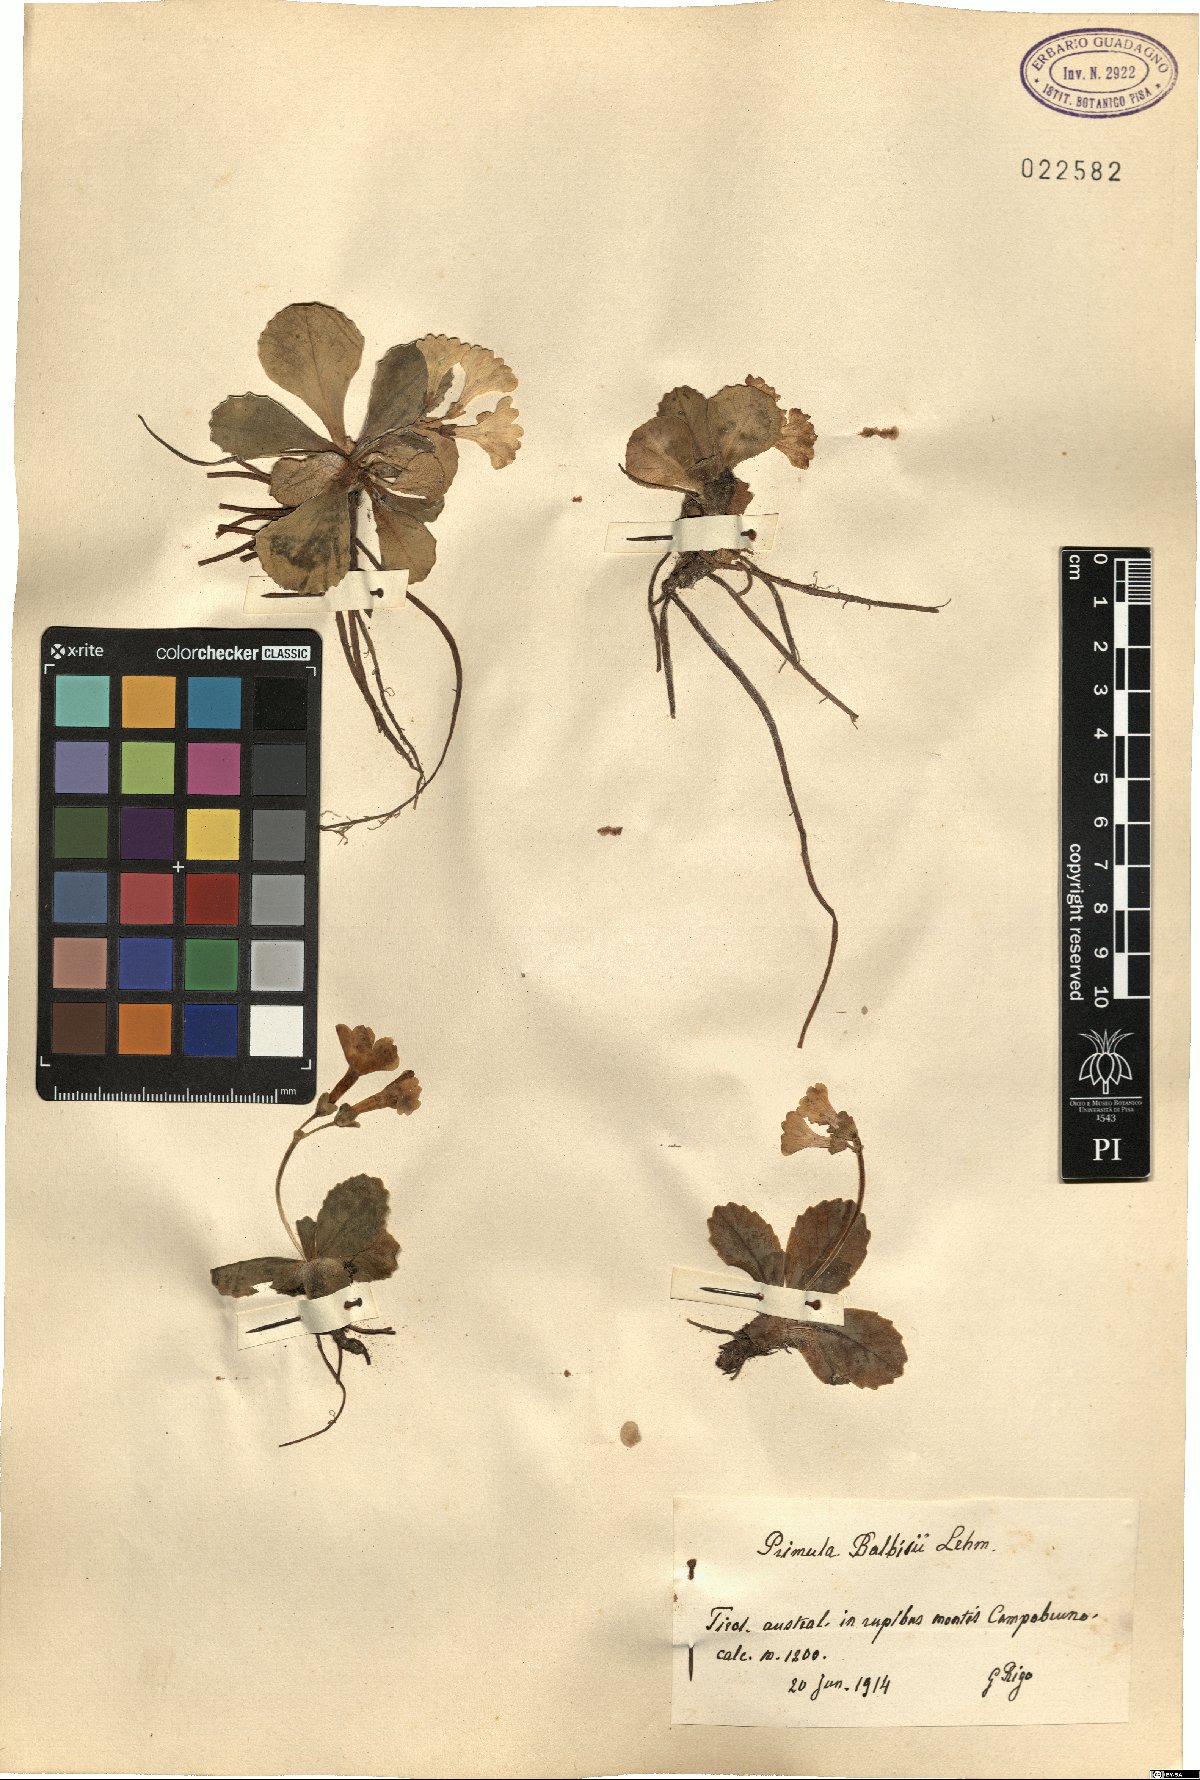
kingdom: Plantae
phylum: Tracheophyta
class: Magnoliopsida
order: Ericales
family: Primulaceae
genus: Primula
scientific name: Primula auricula
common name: Auricula
